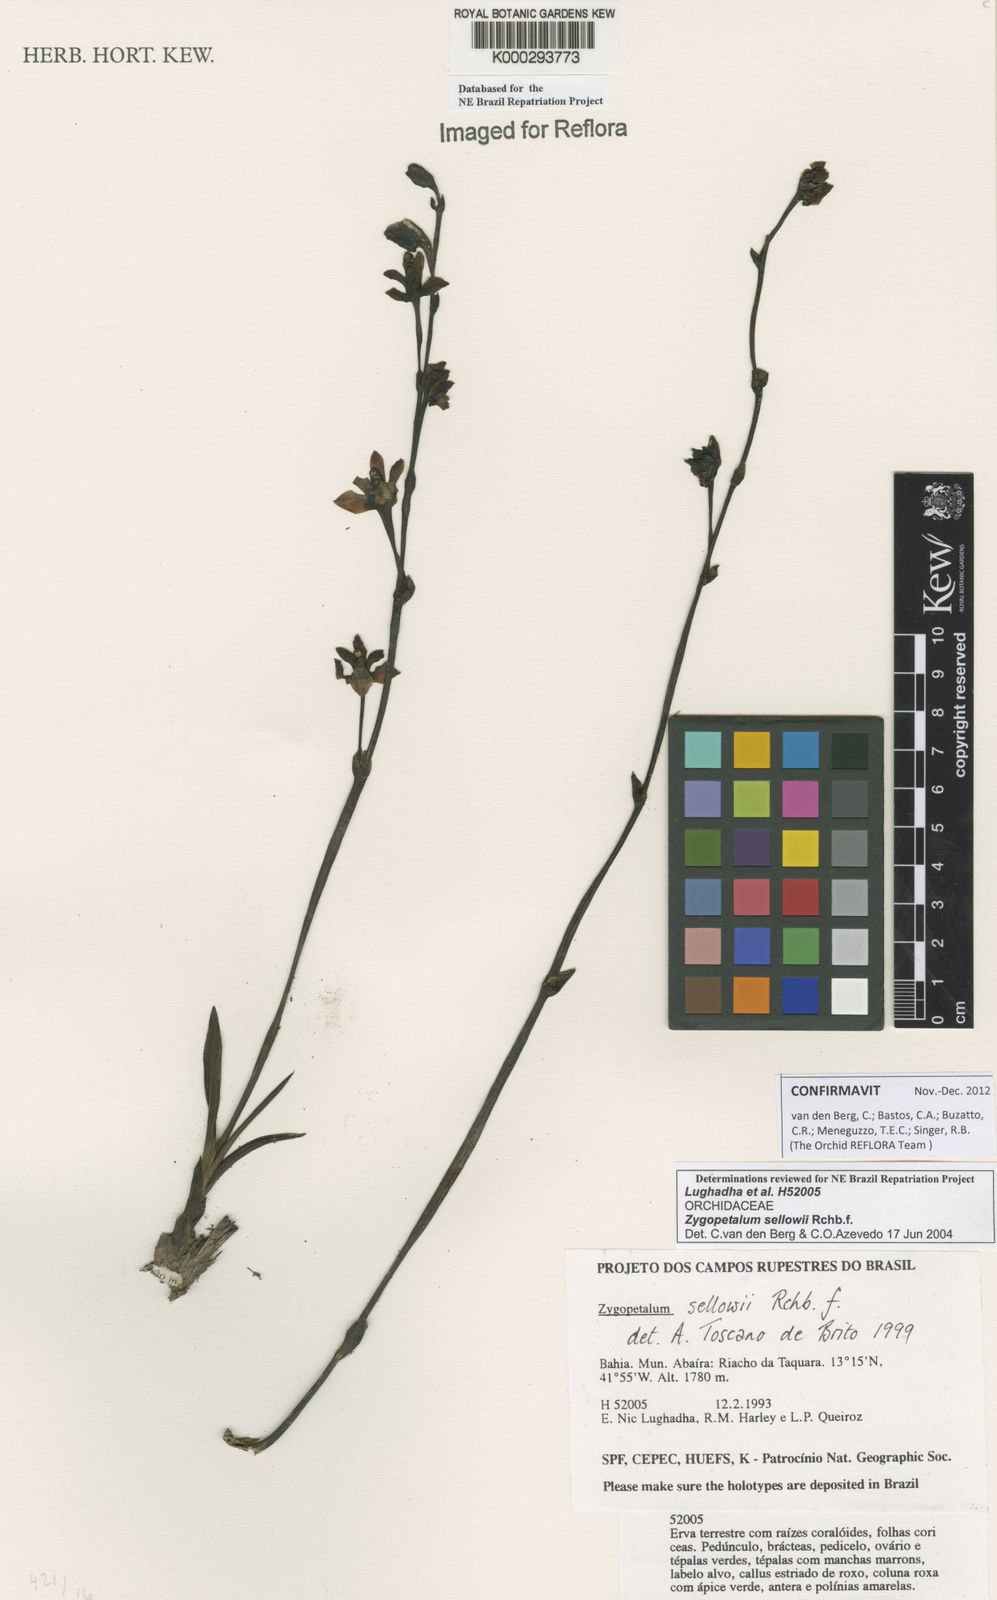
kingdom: Plantae
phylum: Tracheophyta
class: Liliopsida
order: Asparagales
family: Orchidaceae
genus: Zygopetalum
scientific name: Zygopetalum sellowii
